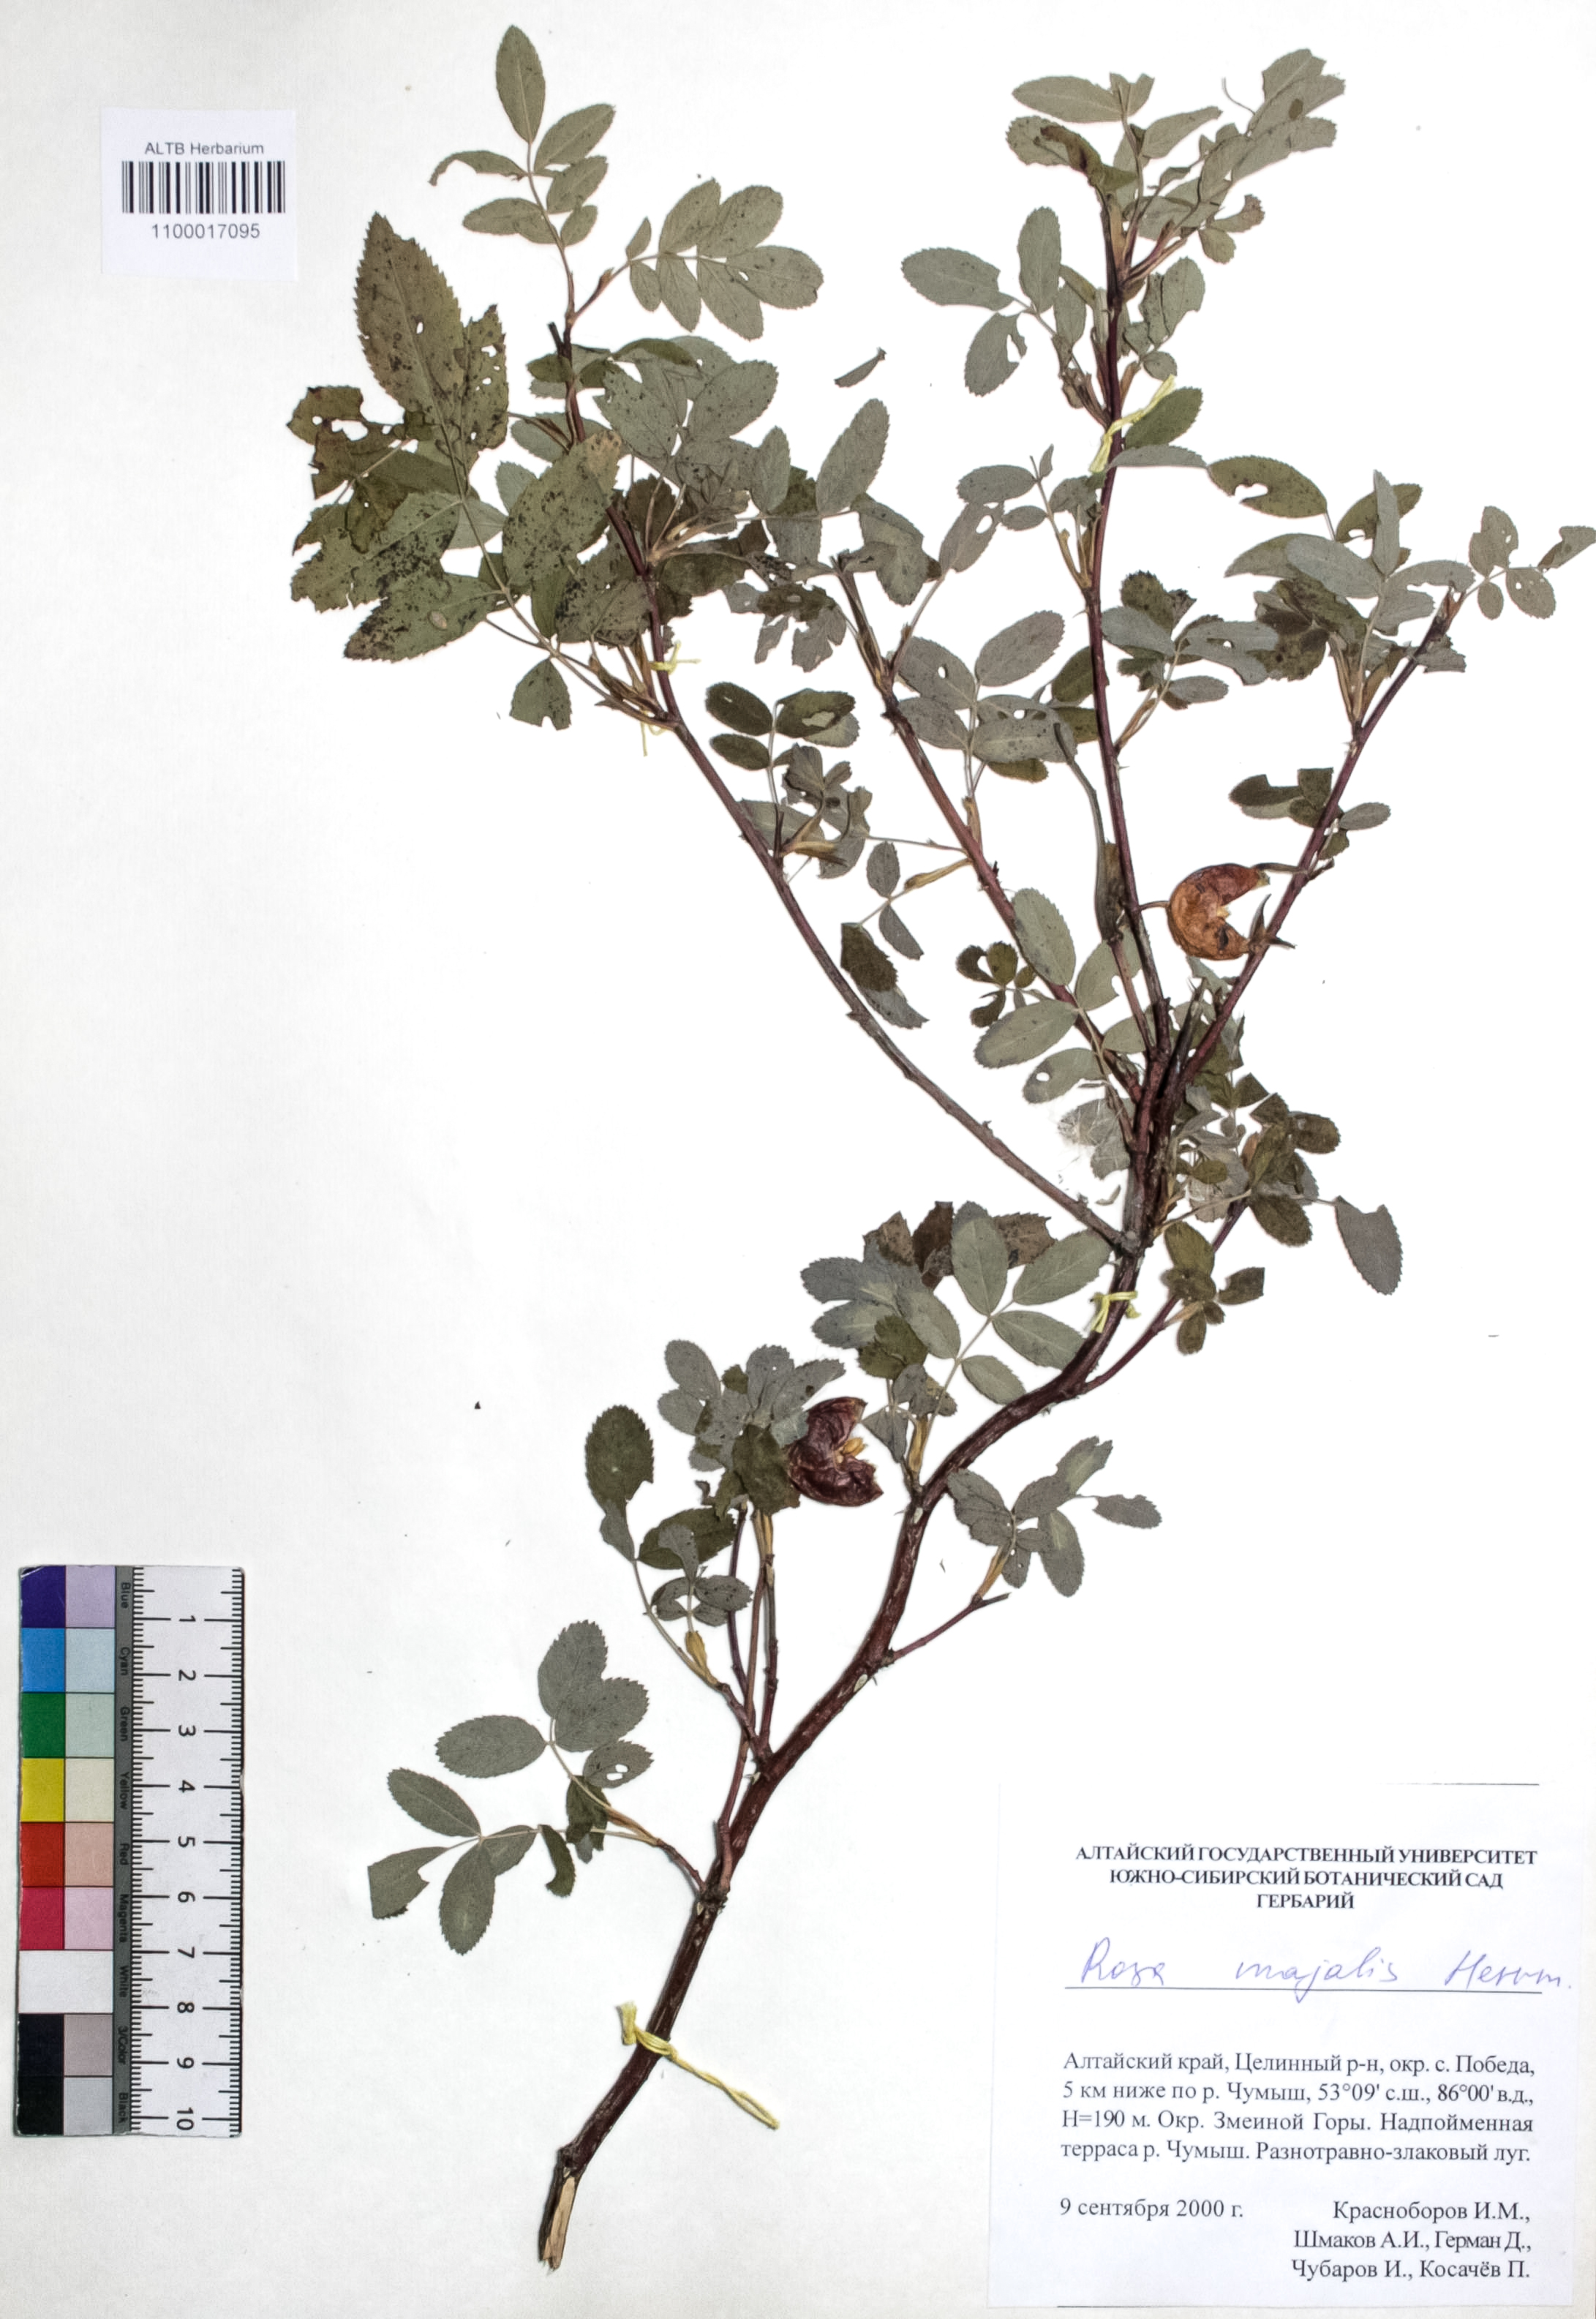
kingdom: Plantae
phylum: Tracheophyta
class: Magnoliopsida
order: Rosales
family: Rosaceae
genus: Rosa
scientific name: Rosa majalis
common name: Cinnamon rose
